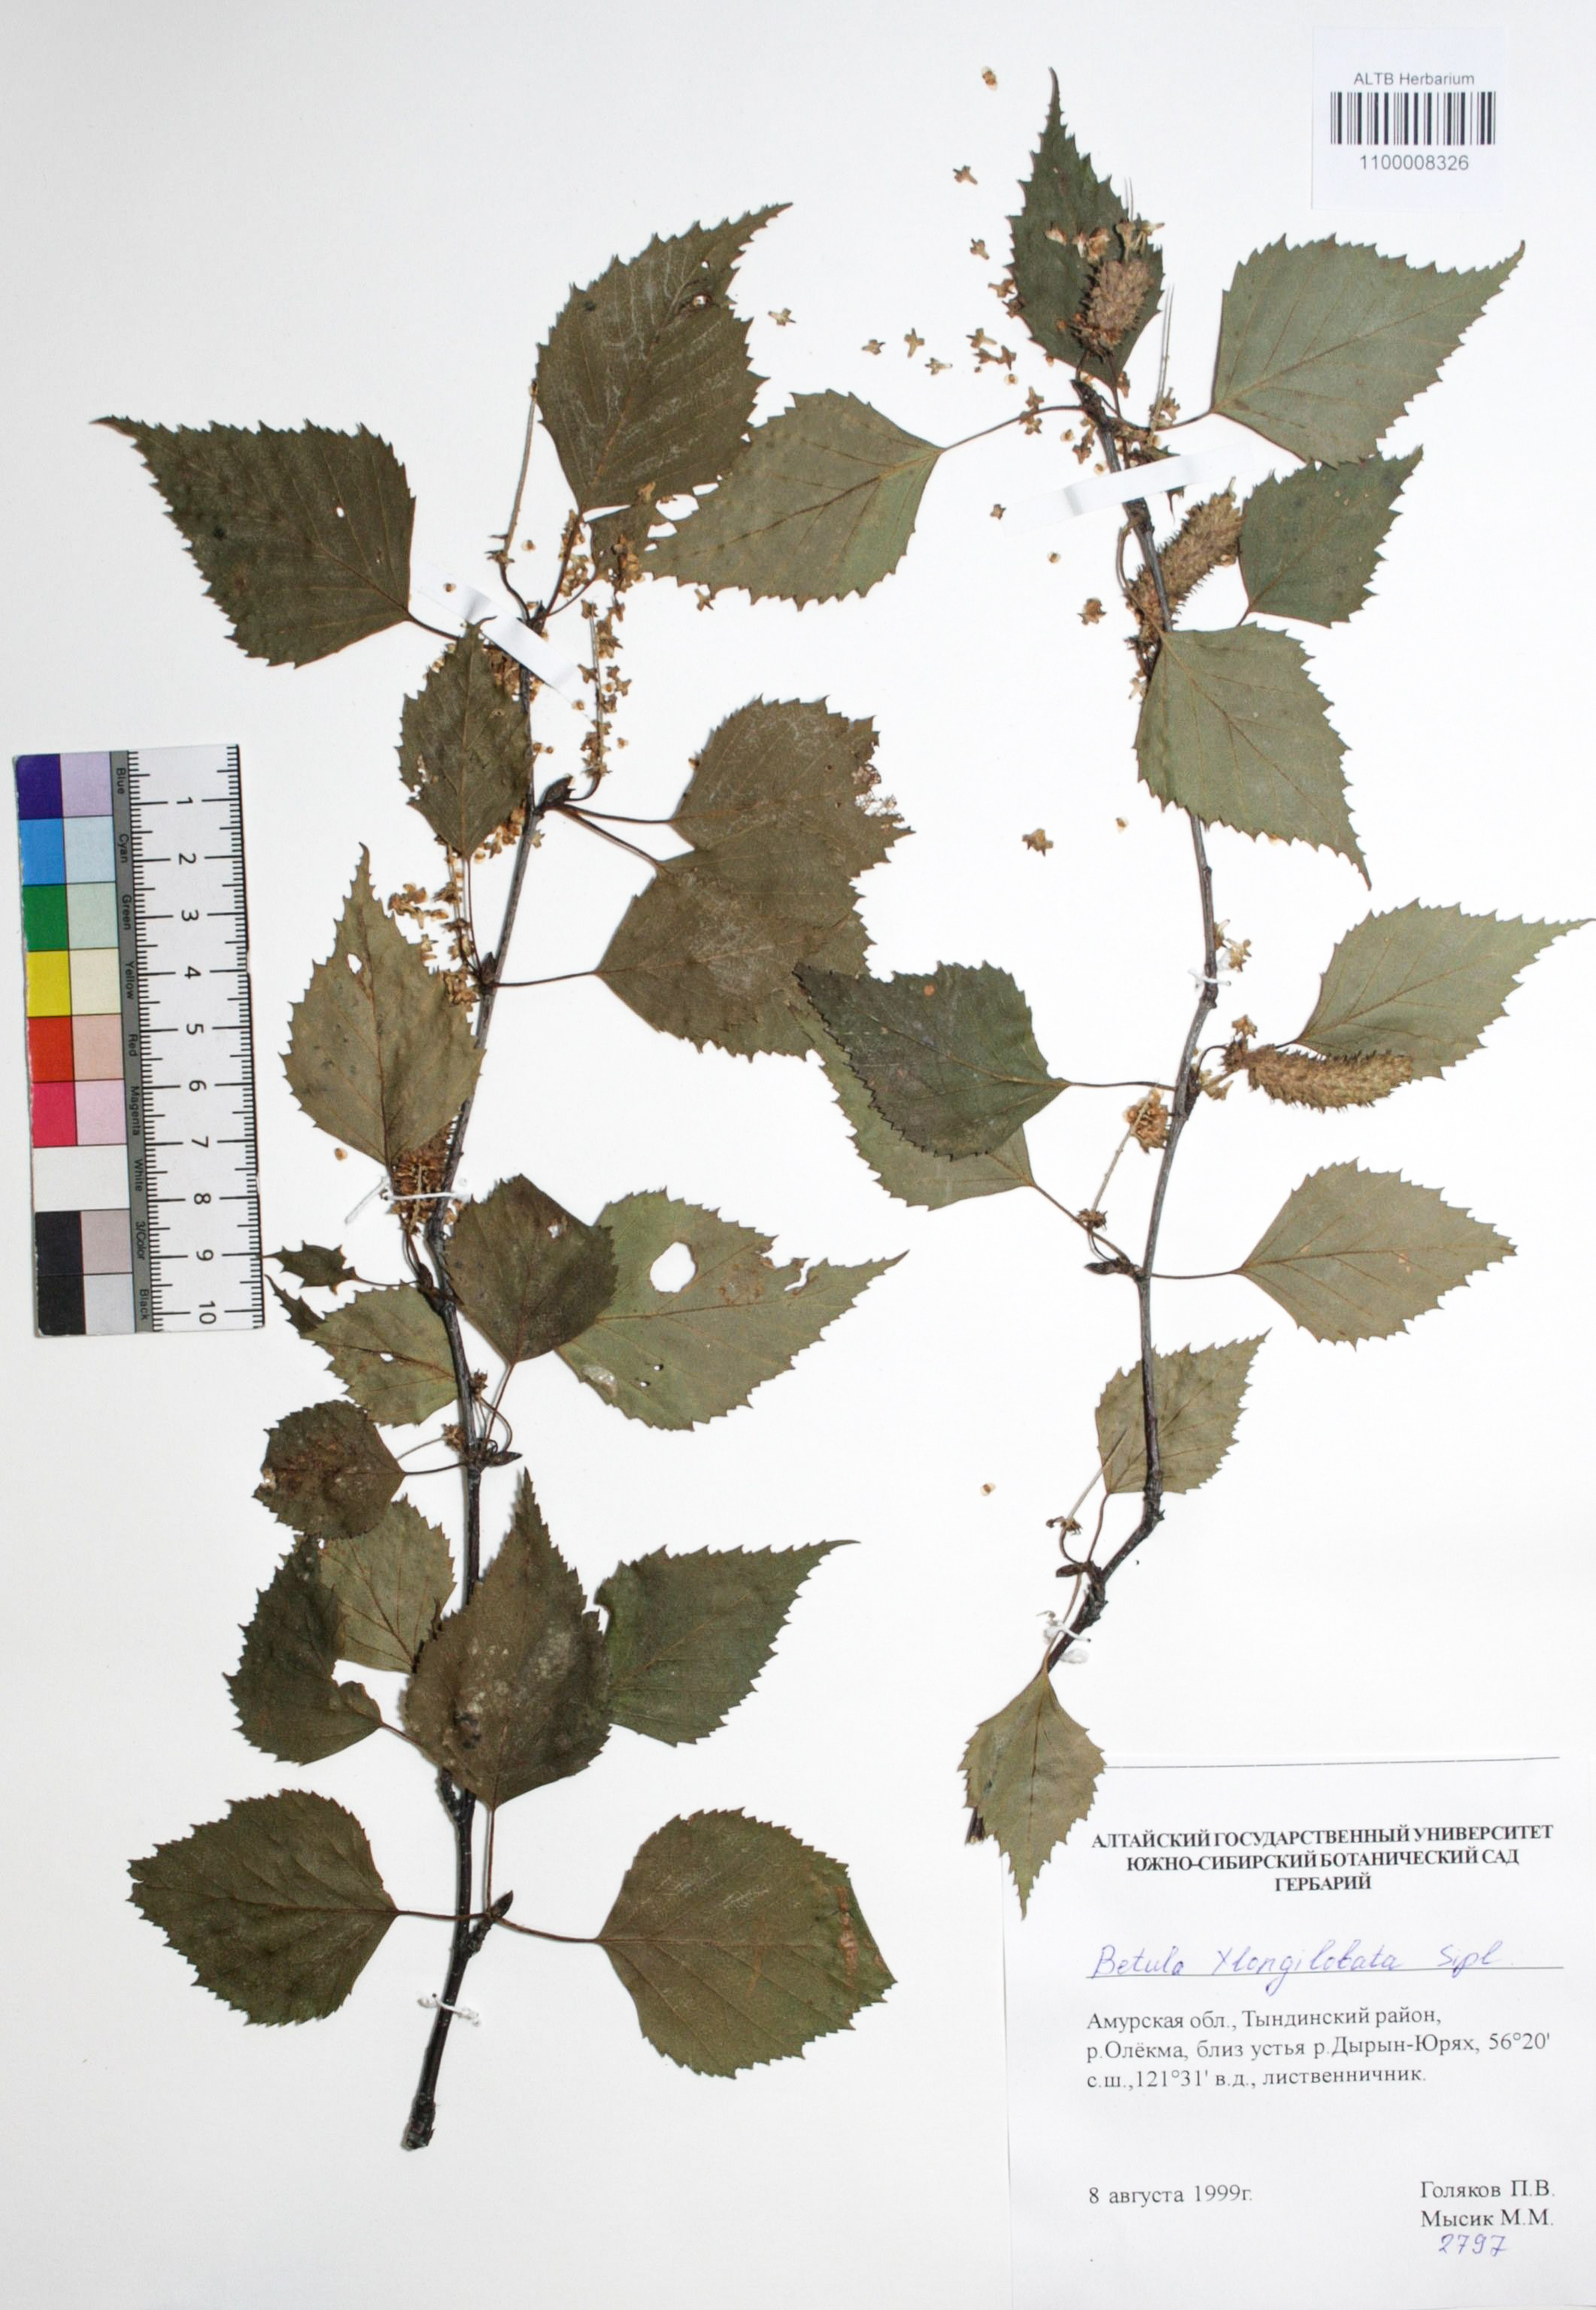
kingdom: Plantae
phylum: Tracheophyta
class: Magnoliopsida
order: Fagales
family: Betulaceae
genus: Betula
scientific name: Betula ermanii
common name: Erman's birch
